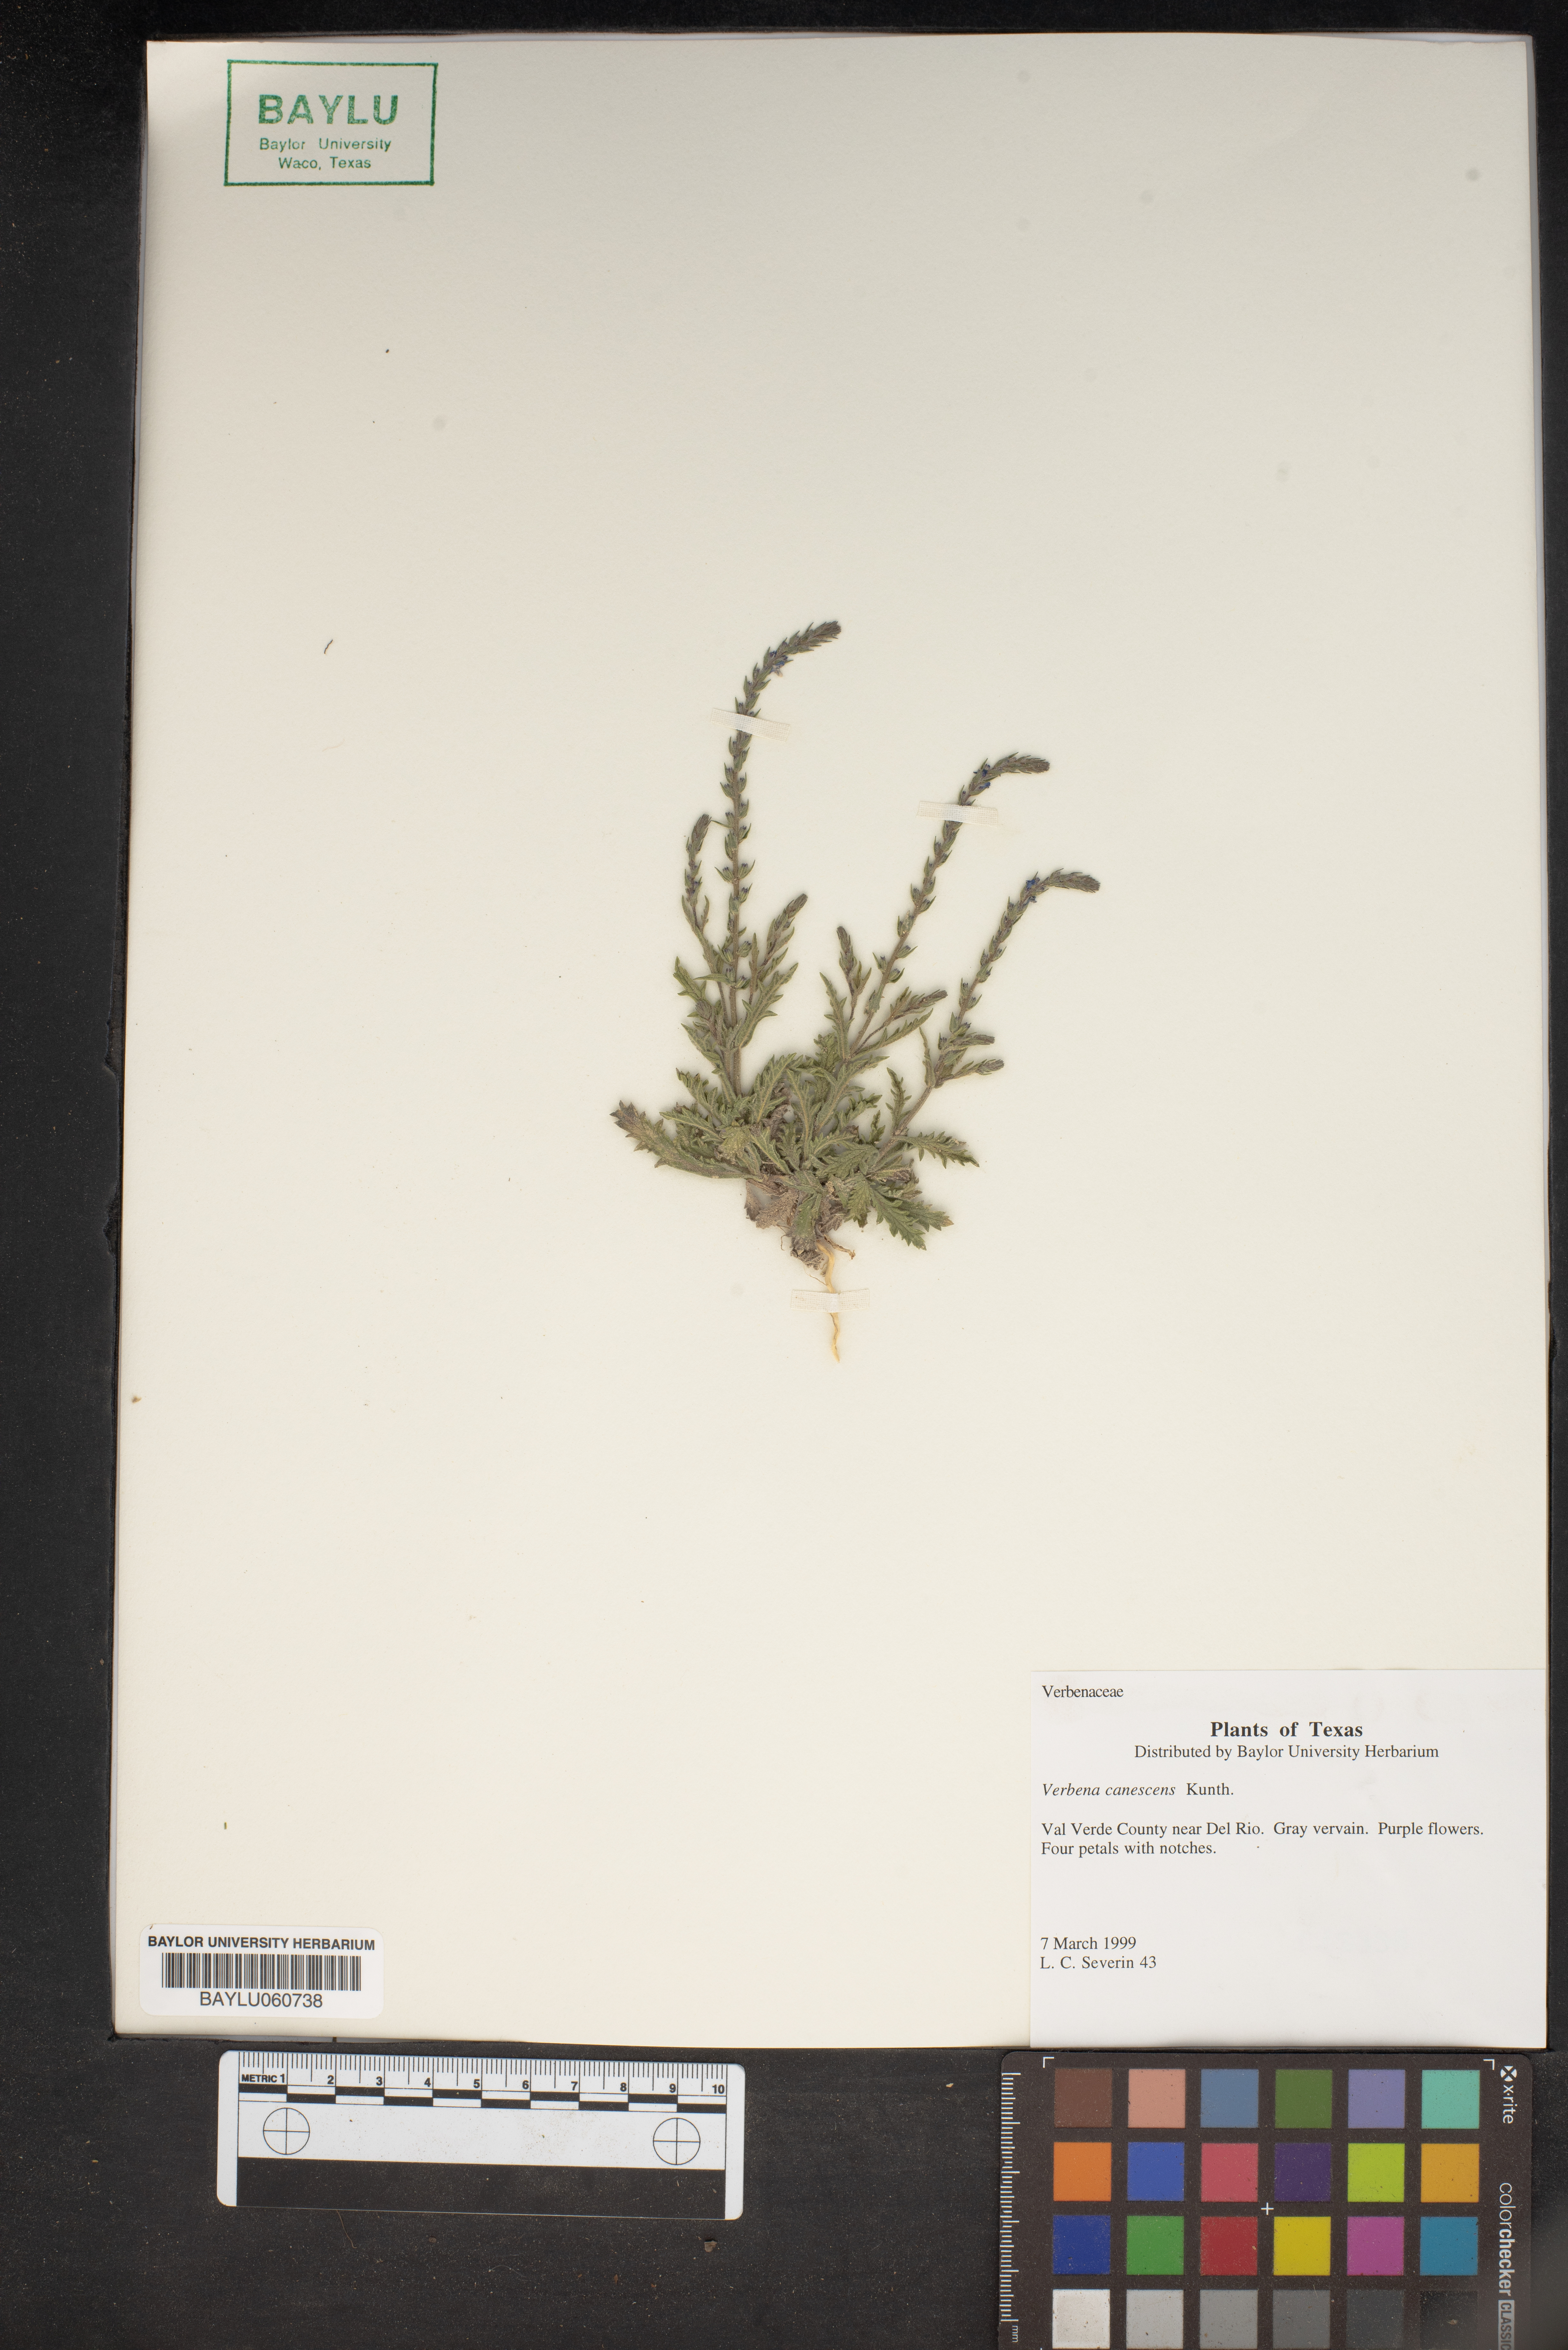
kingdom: Plantae
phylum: Tracheophyta
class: Magnoliopsida
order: Lamiales
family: Verbenaceae
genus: Verbena
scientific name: Verbena canescens
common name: Gray vervain
